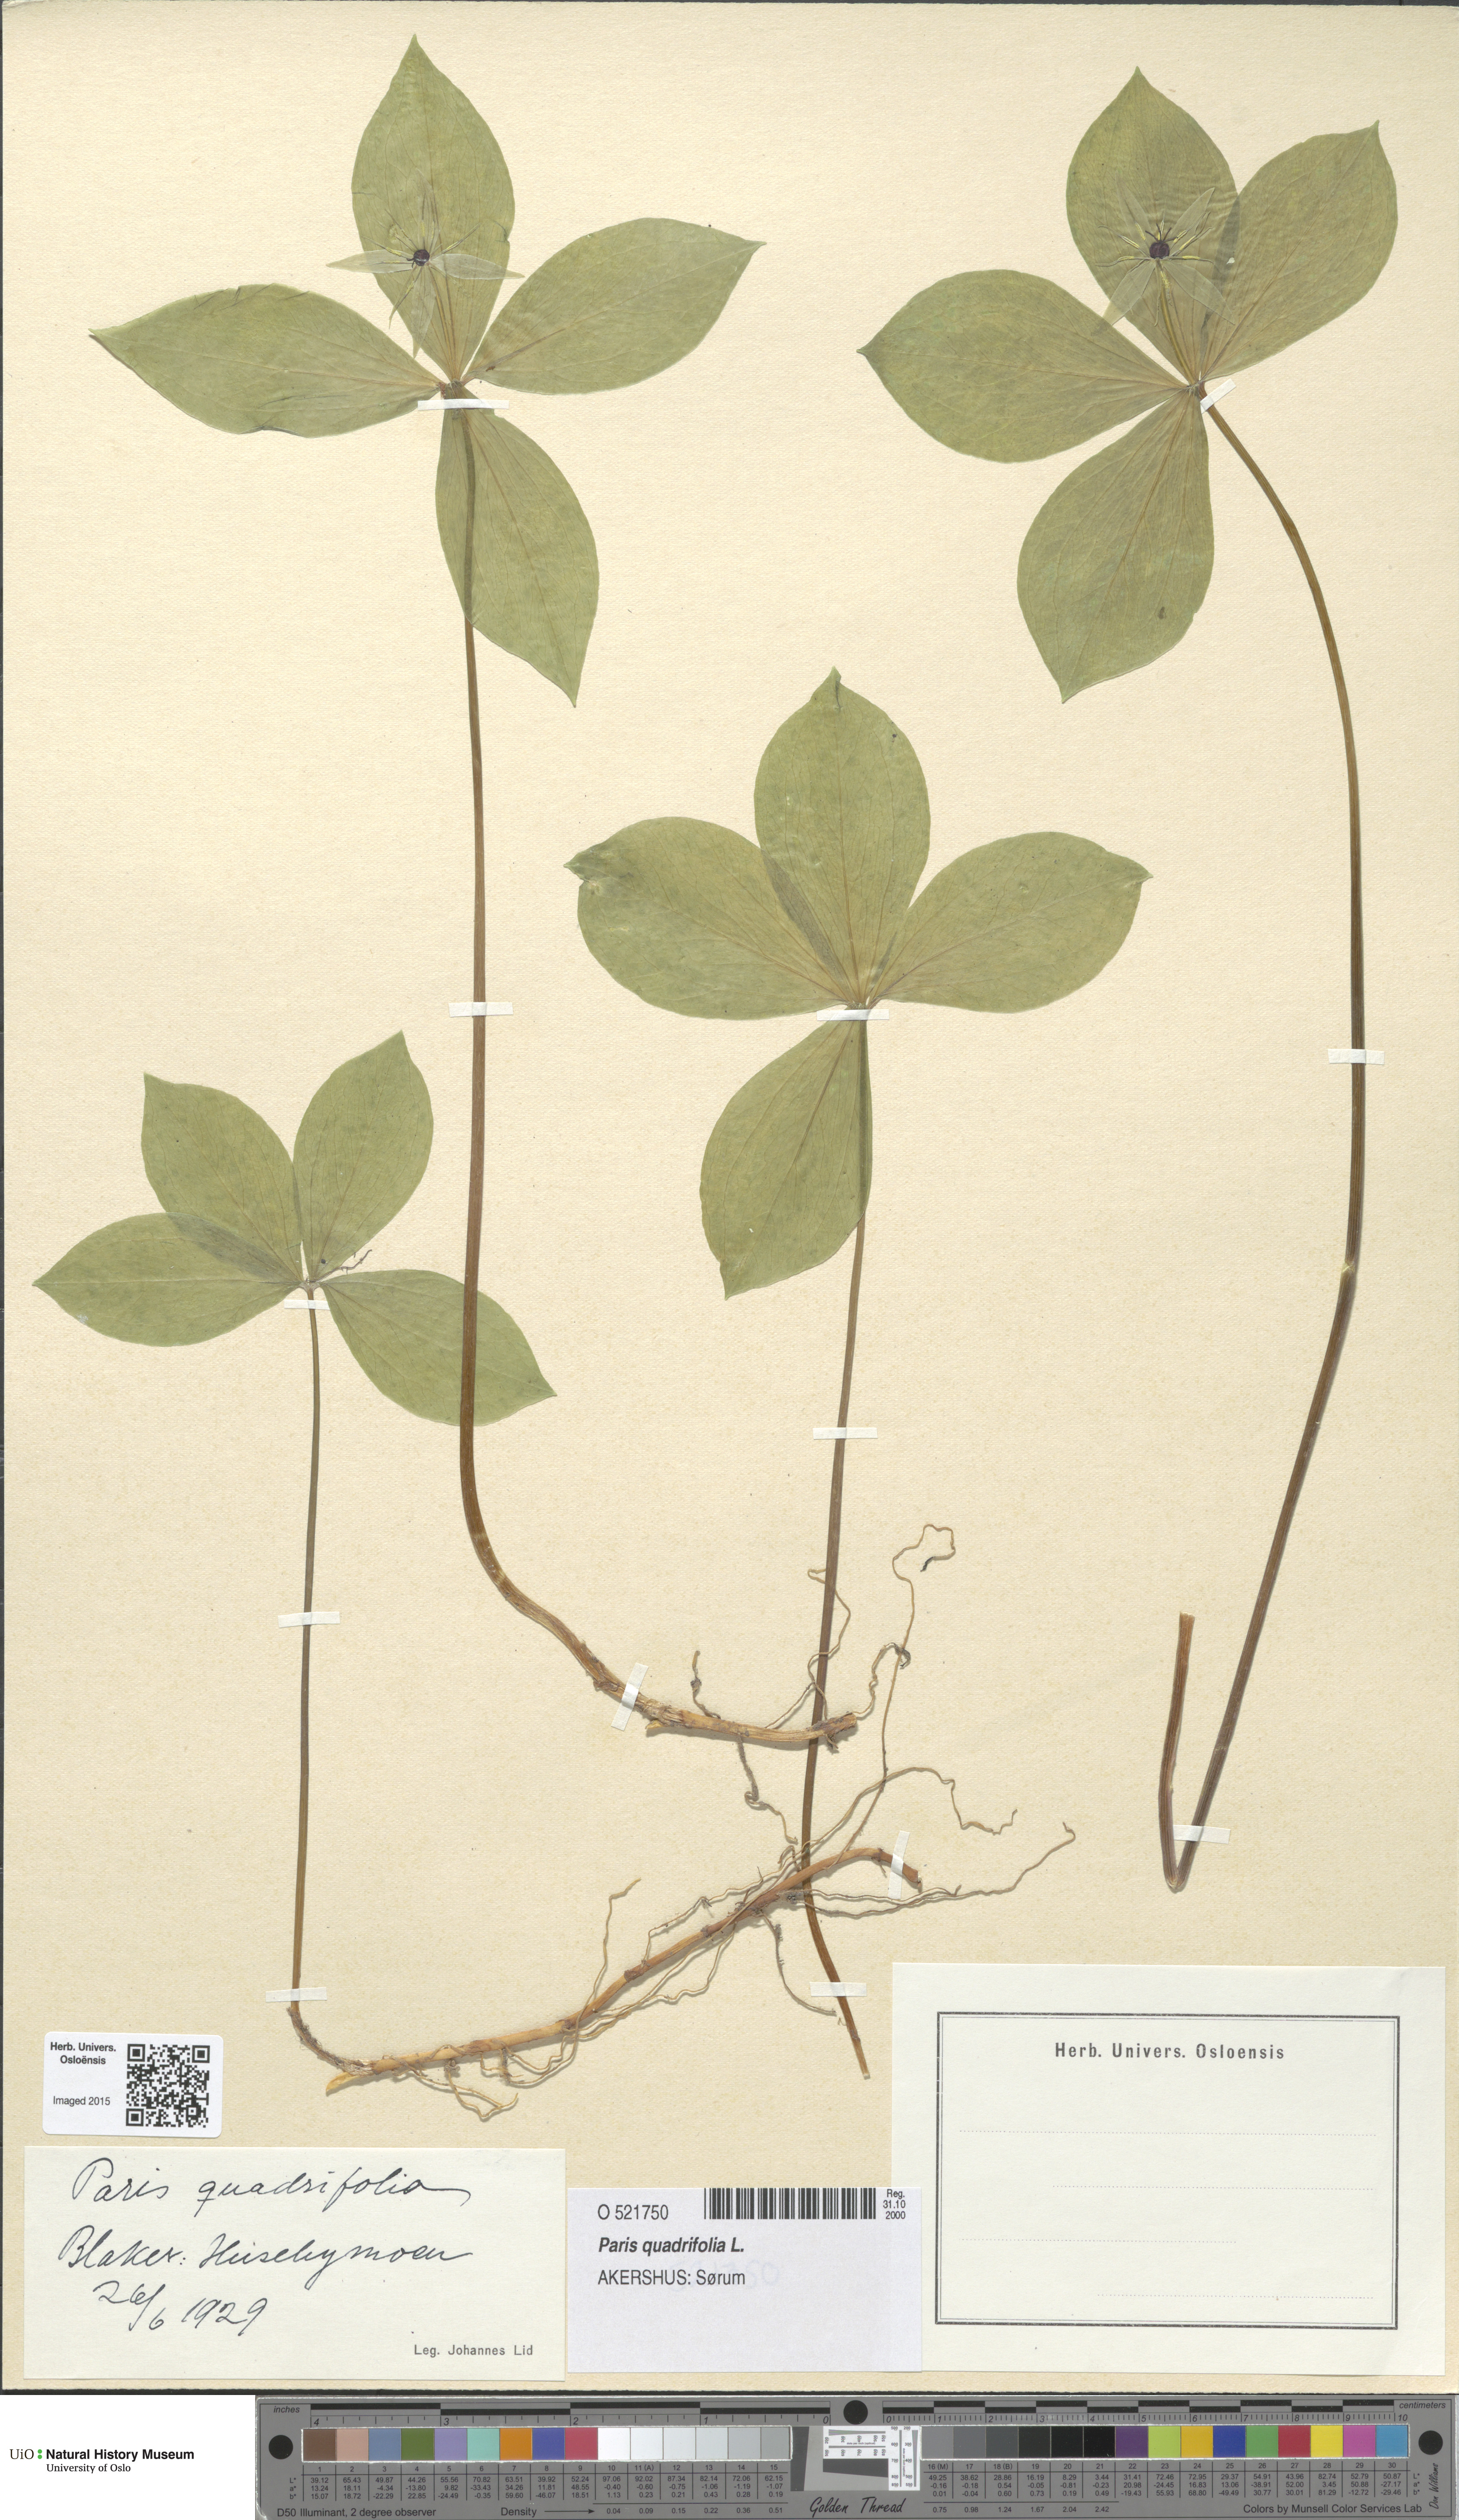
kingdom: Plantae
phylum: Tracheophyta
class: Liliopsida
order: Liliales
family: Melanthiaceae
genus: Paris
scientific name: Paris quadrifolia
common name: Herb-paris
